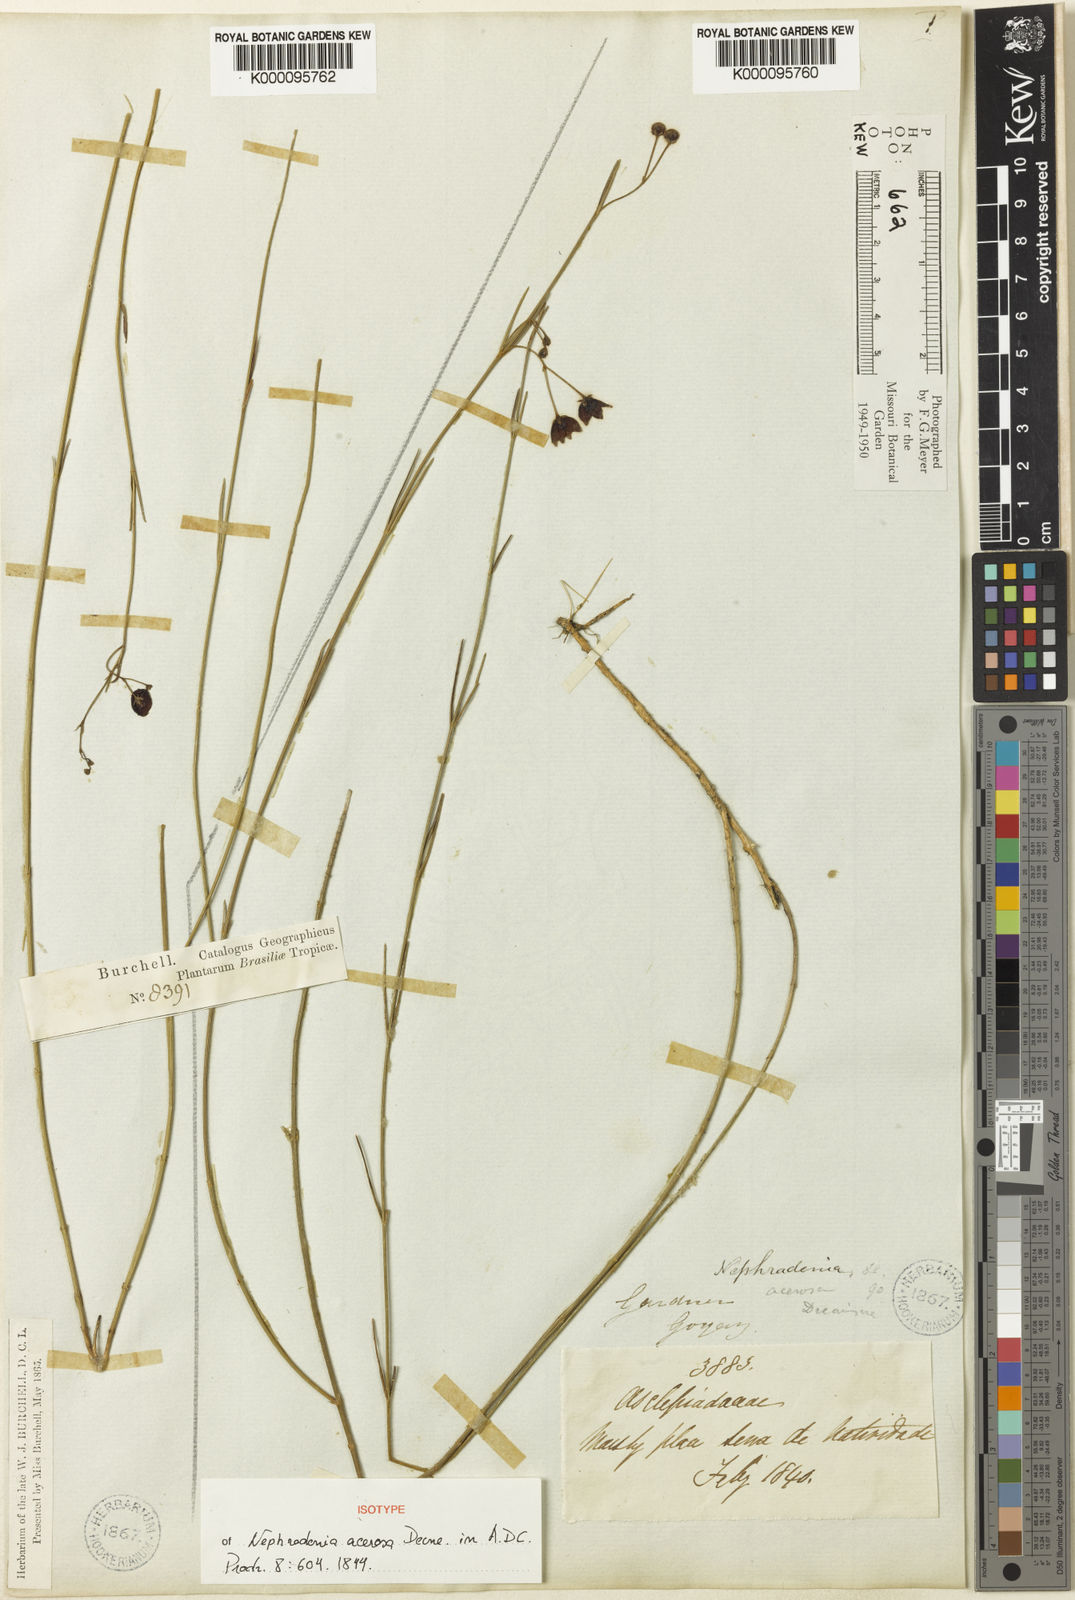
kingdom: Plantae
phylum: Tracheophyta
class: Magnoliopsida
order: Gentianales
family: Apocynaceae
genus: Nephradenia
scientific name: Nephradenia acerosa
